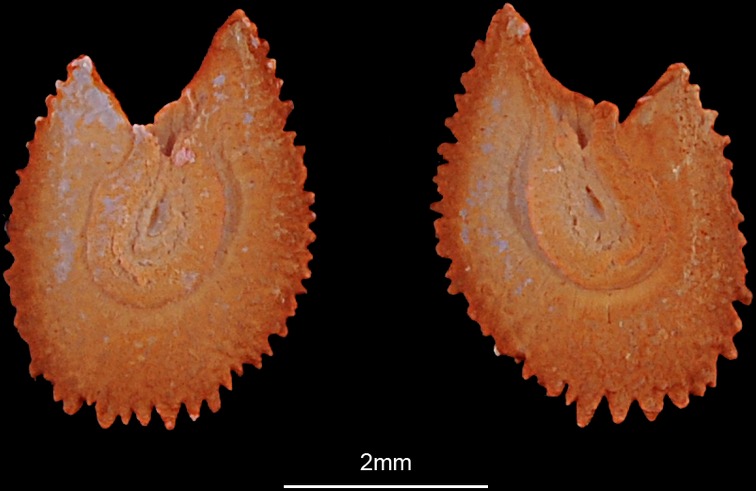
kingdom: Animalia
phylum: Chordata
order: Cypriniformes
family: Cyprinidae
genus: Probarbus
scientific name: Probarbus jullieni
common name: Jullien's golden carp
